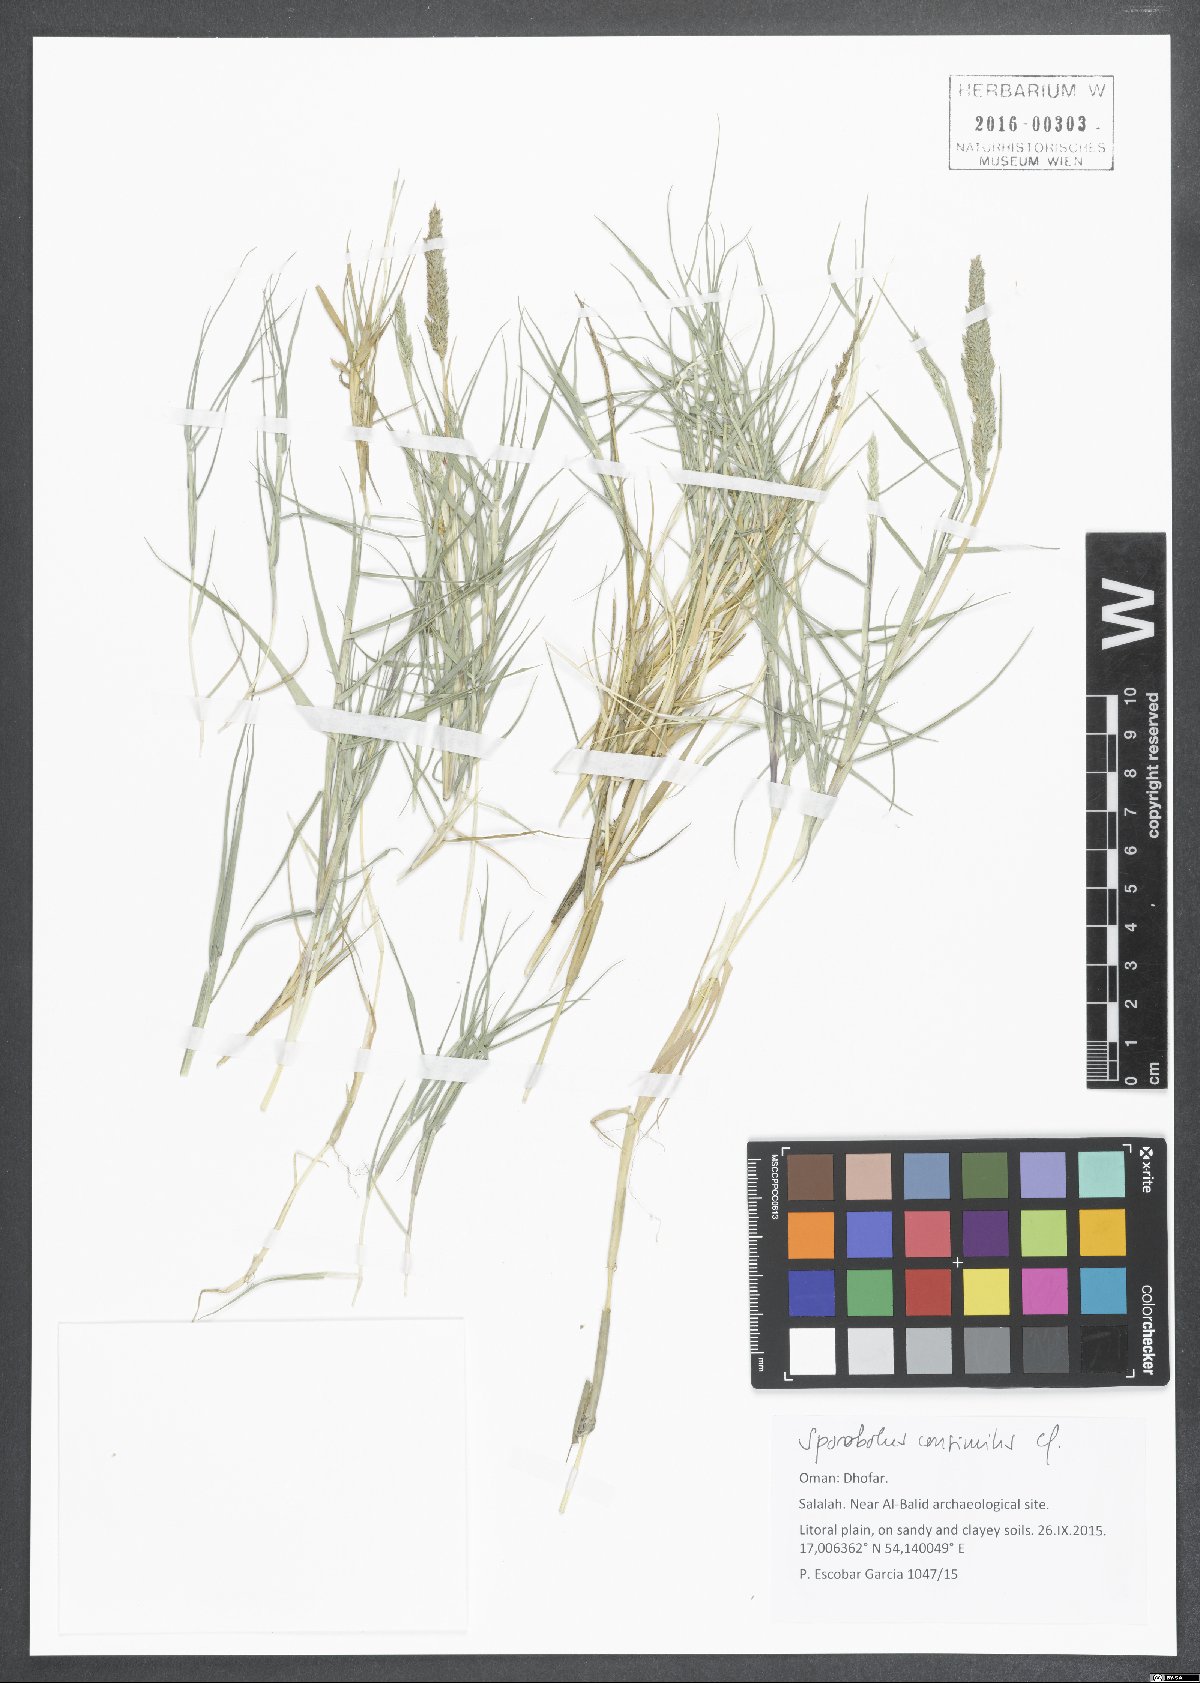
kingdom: Plantae
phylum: Tracheophyta
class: Liliopsida
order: Poales
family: Poaceae
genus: Sporobolus
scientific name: Sporobolus consimilis
